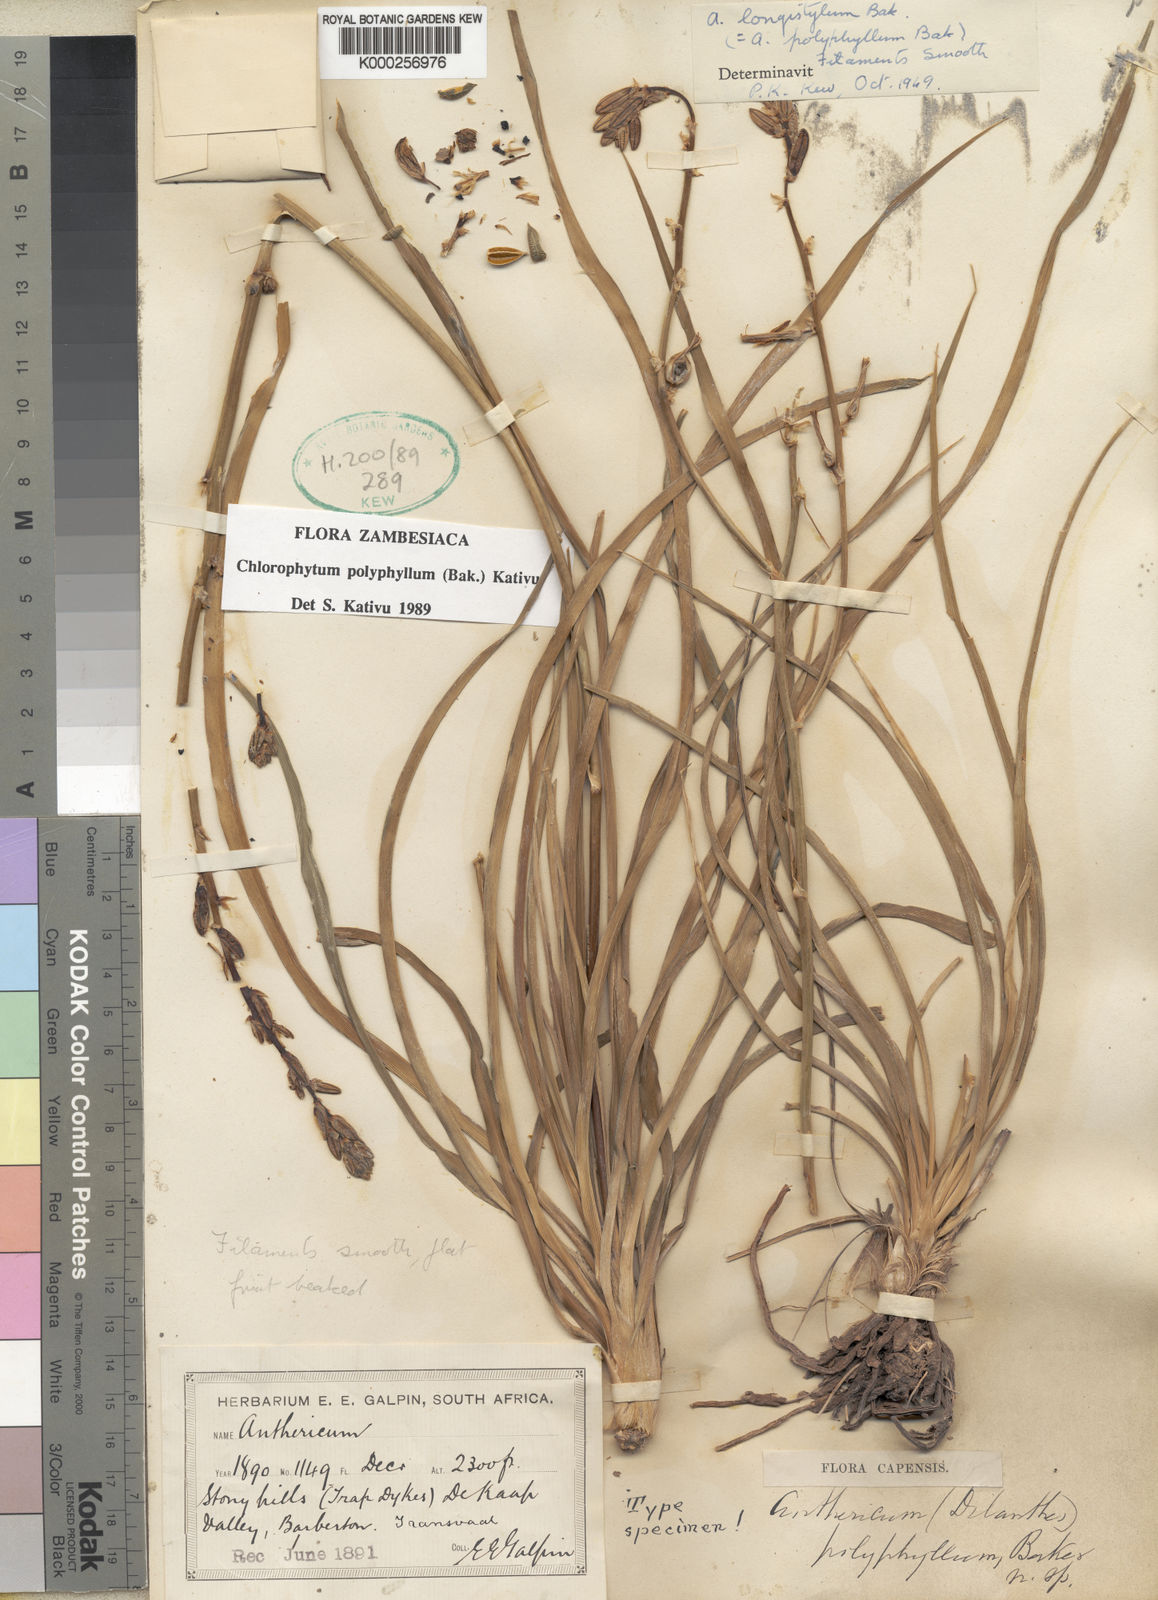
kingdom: Plantae
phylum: Tracheophyta
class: Liliopsida
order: Asparagales
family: Asparagaceae
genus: Chlorophytum
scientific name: Chlorophytum recurvifolium
